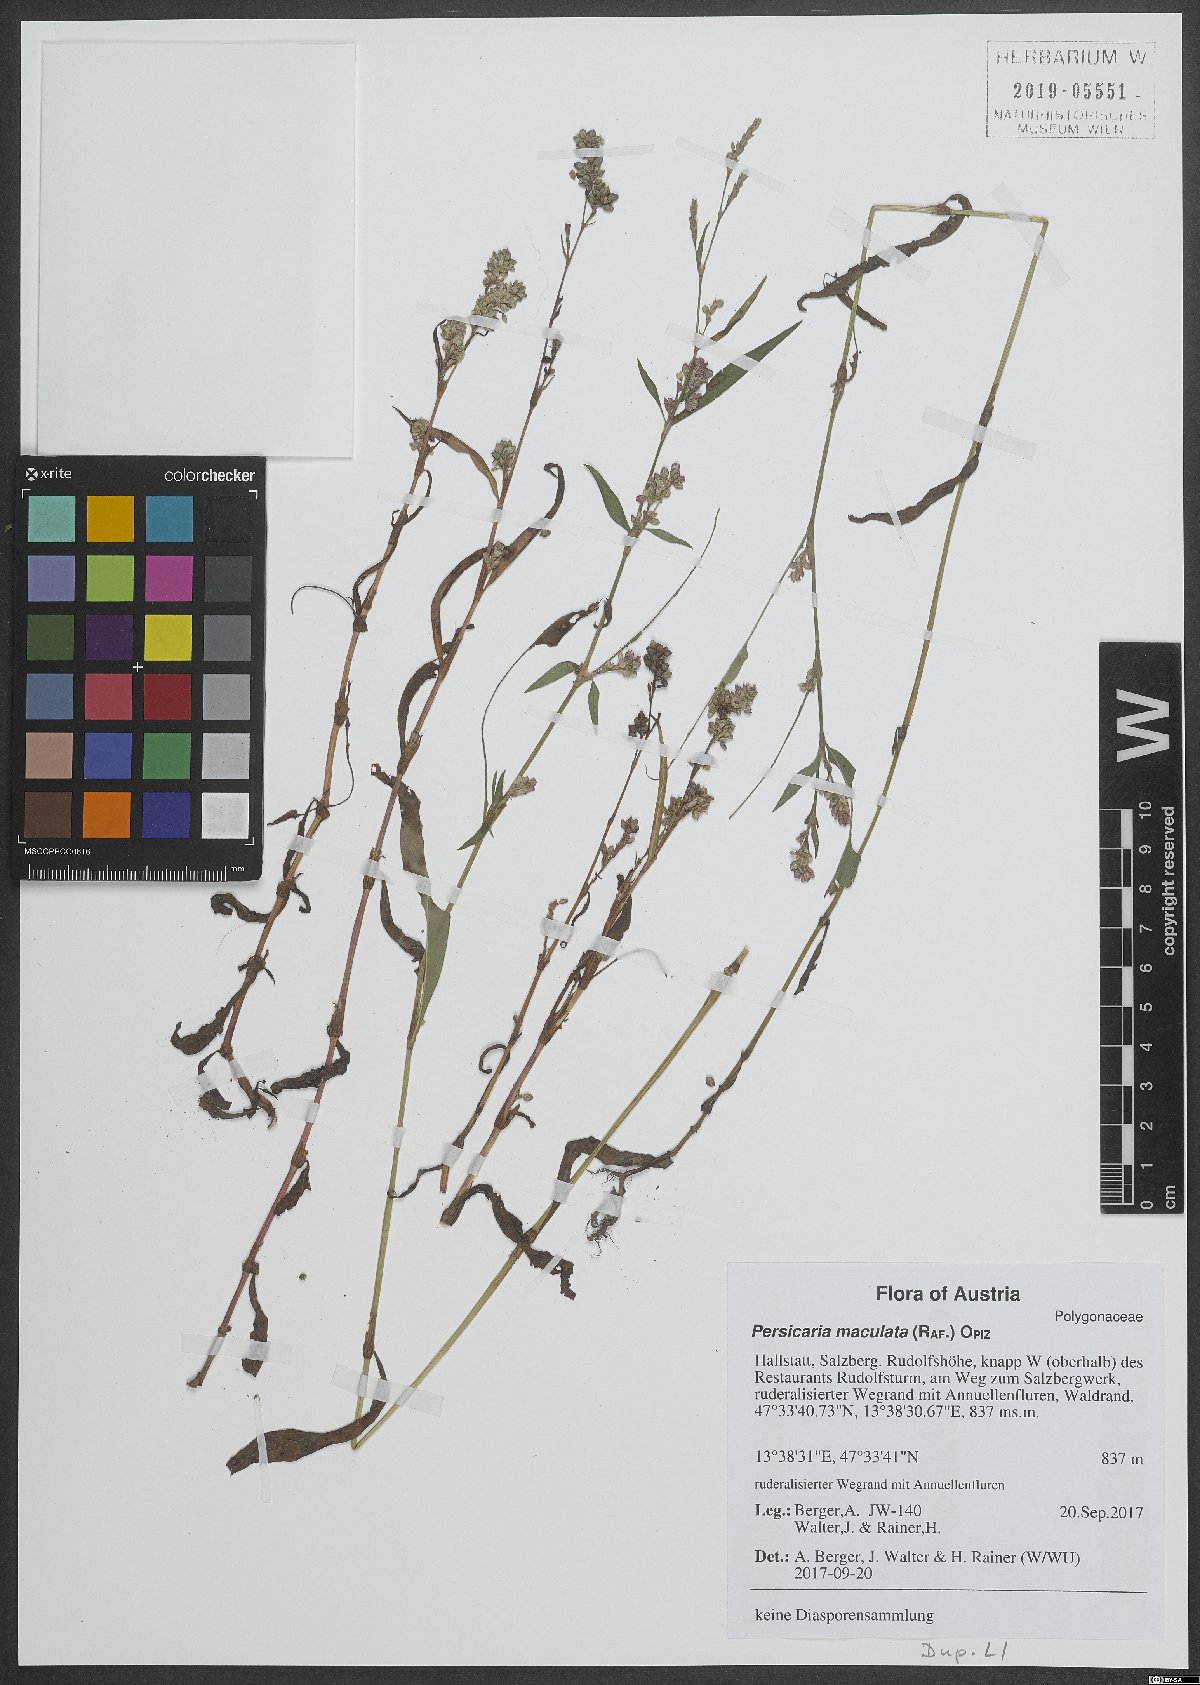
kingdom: Plantae
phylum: Tracheophyta
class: Magnoliopsida
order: Caryophyllales
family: Polygonaceae
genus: Persicaria
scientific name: Persicaria maculosa
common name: Redshank
